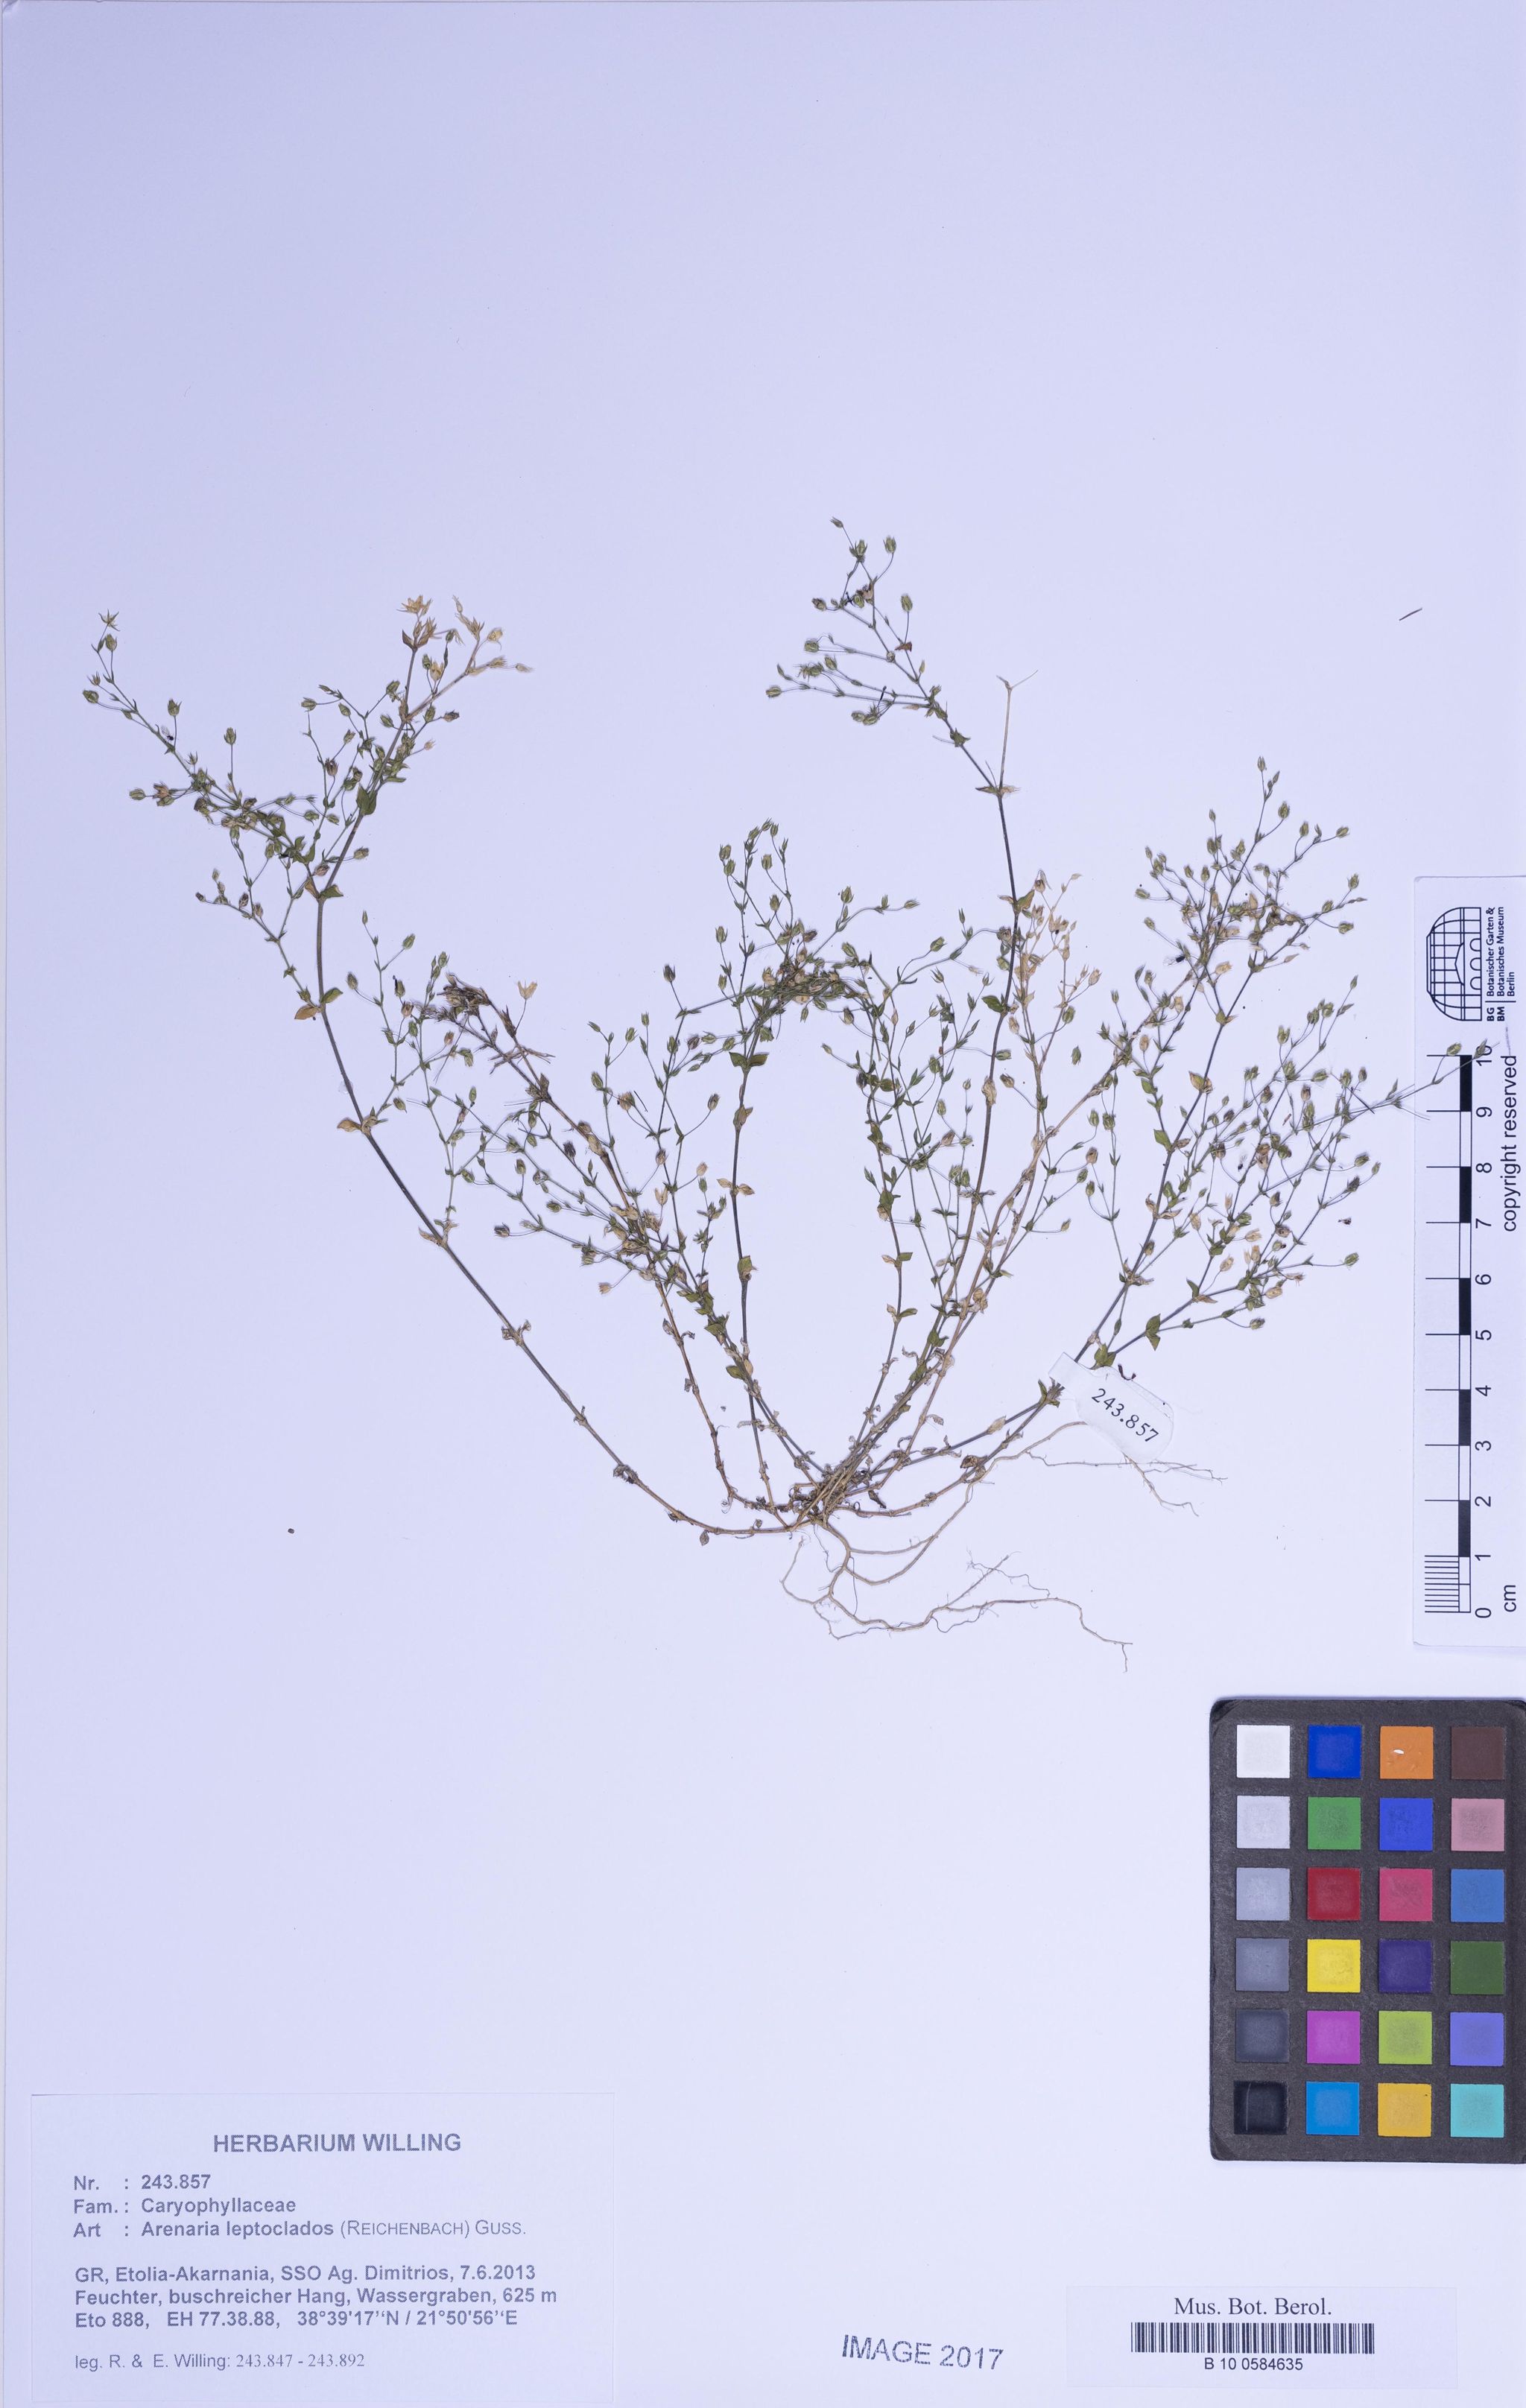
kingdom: Plantae
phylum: Tracheophyta
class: Magnoliopsida
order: Caryophyllales
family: Caryophyllaceae
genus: Arenaria
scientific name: Arenaria leptoclados
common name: Thyme-leaved sandwort
